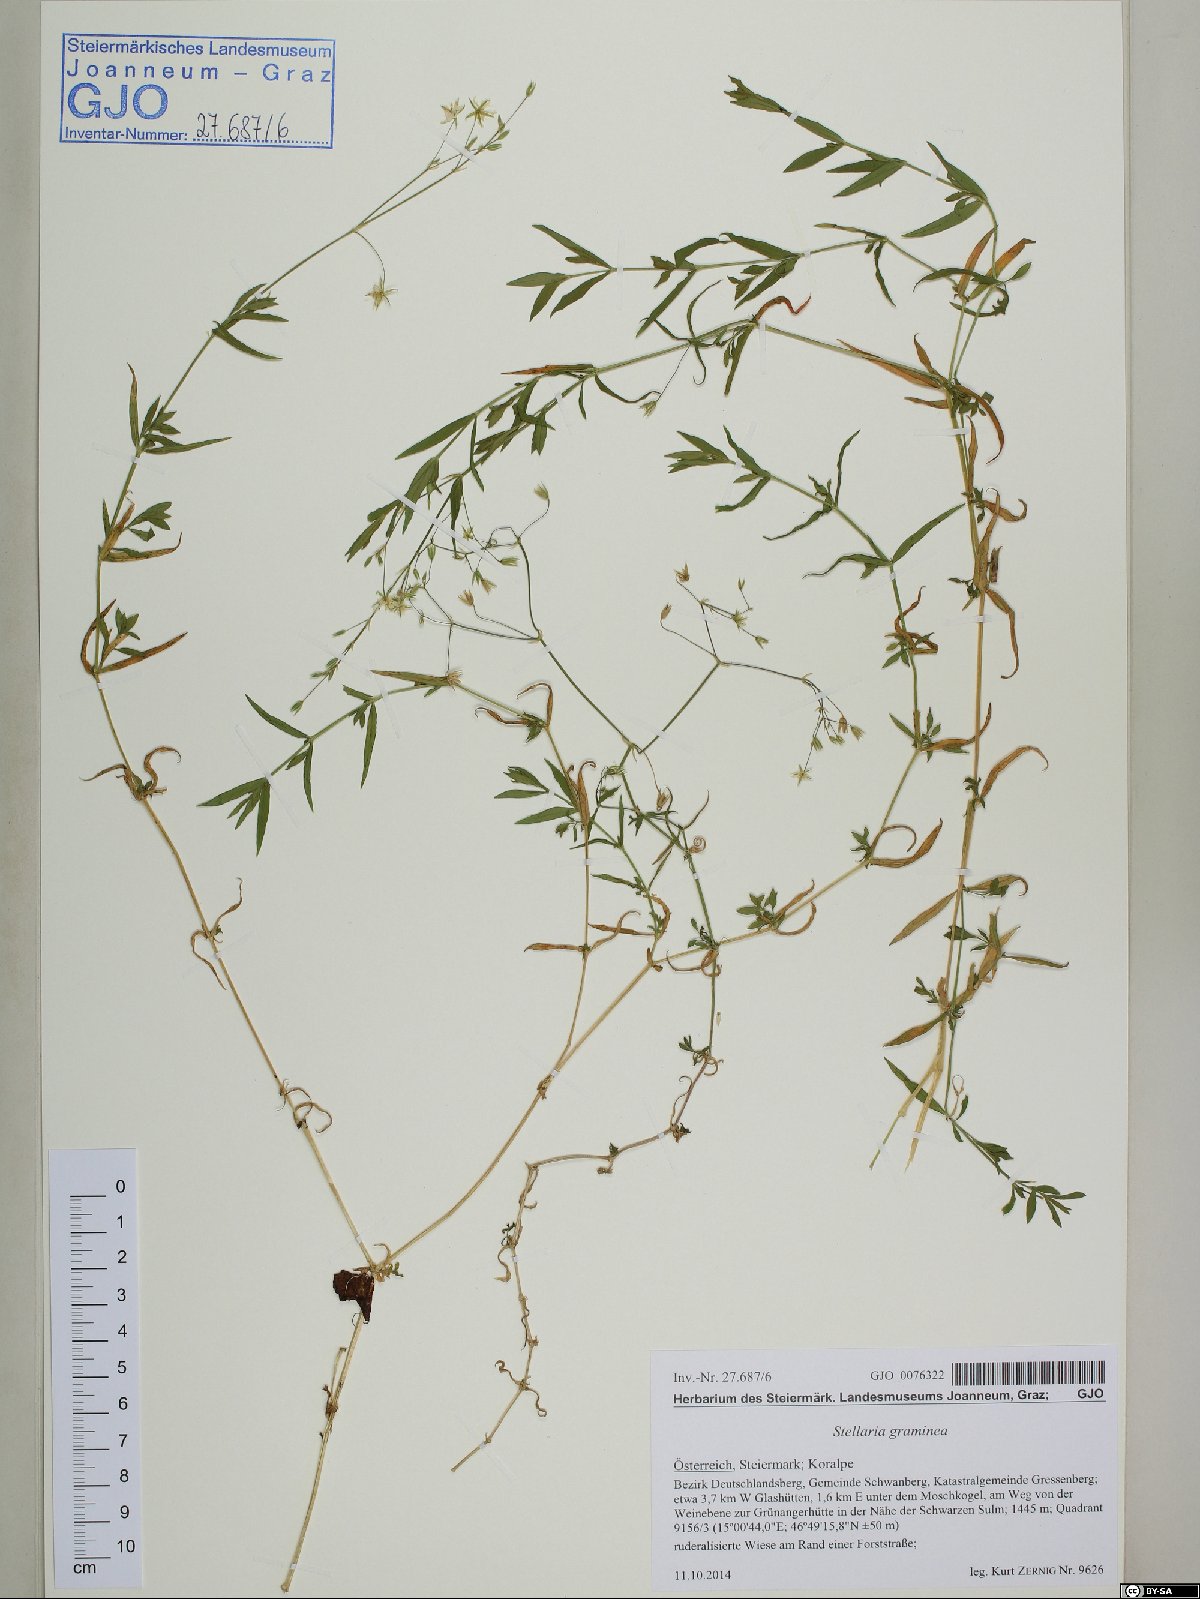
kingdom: Plantae
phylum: Tracheophyta
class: Magnoliopsida
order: Caryophyllales
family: Caryophyllaceae
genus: Stellaria
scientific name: Stellaria graminea
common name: Grass-like starwort
